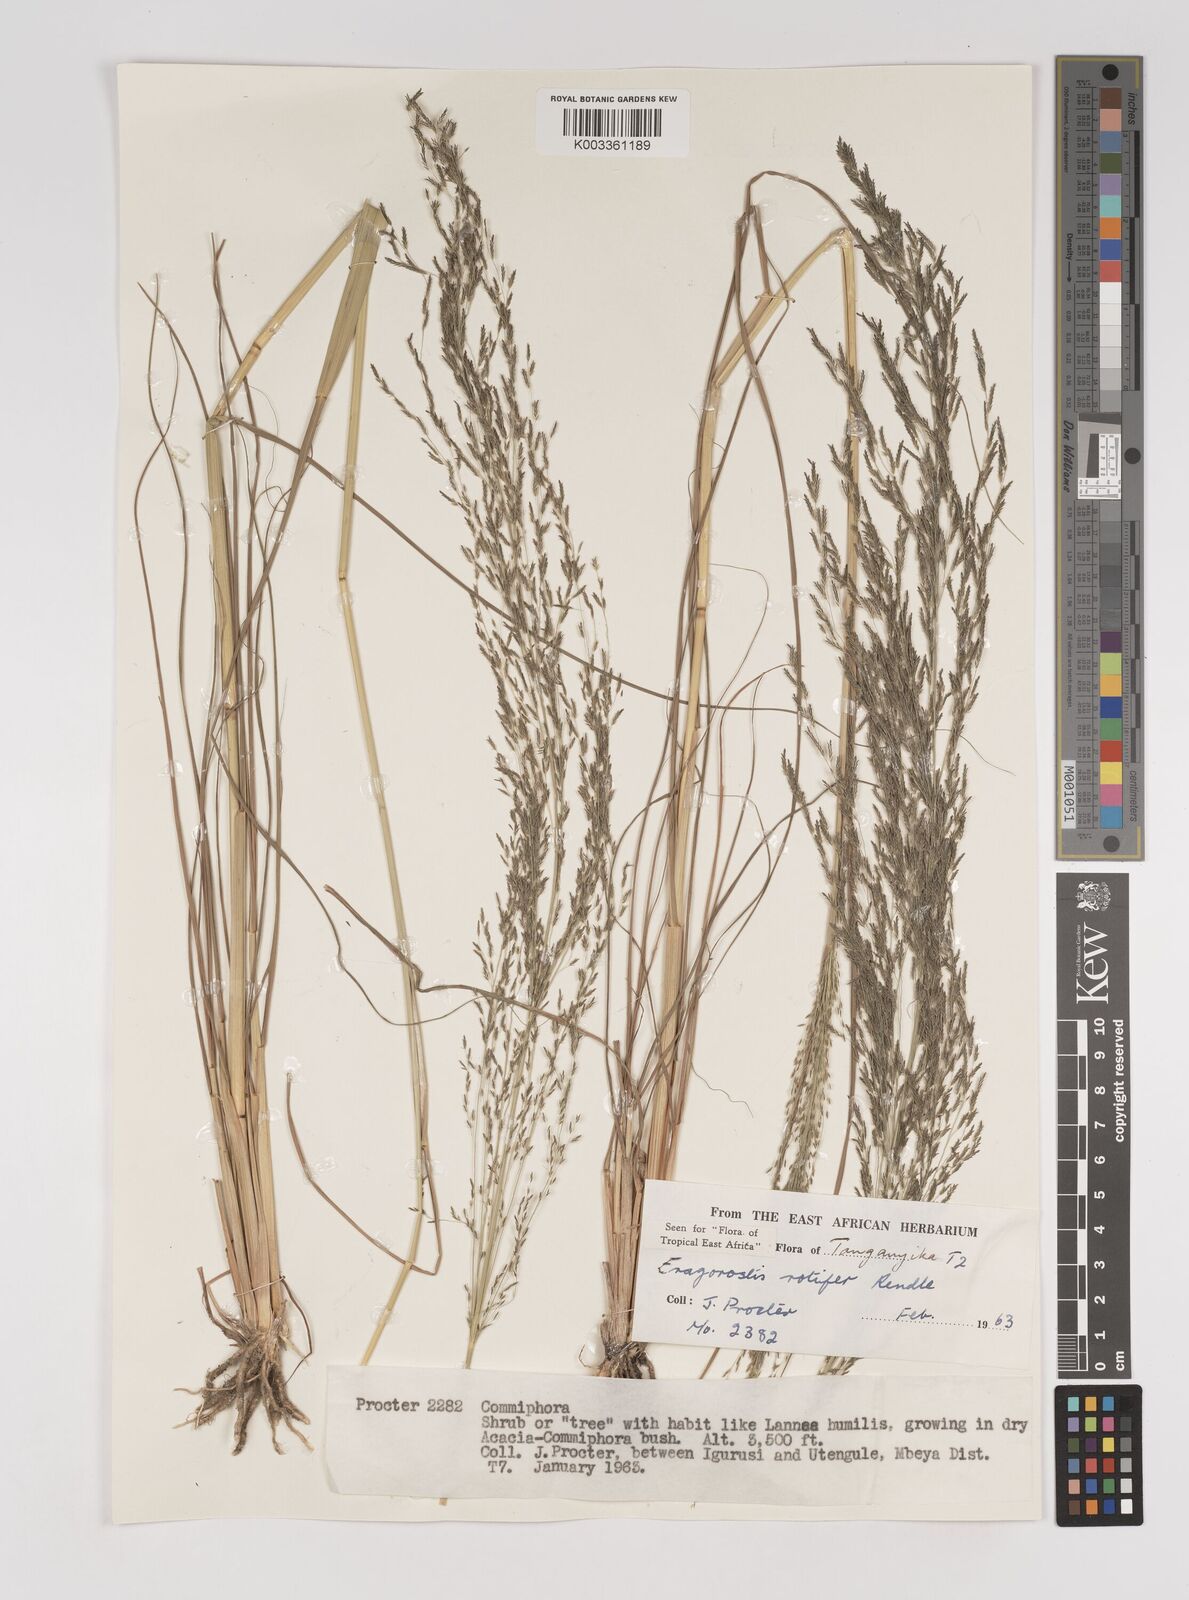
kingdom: Plantae
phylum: Tracheophyta
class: Liliopsida
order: Poales
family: Poaceae
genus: Eragrostis
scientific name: Eragrostis rotifer
